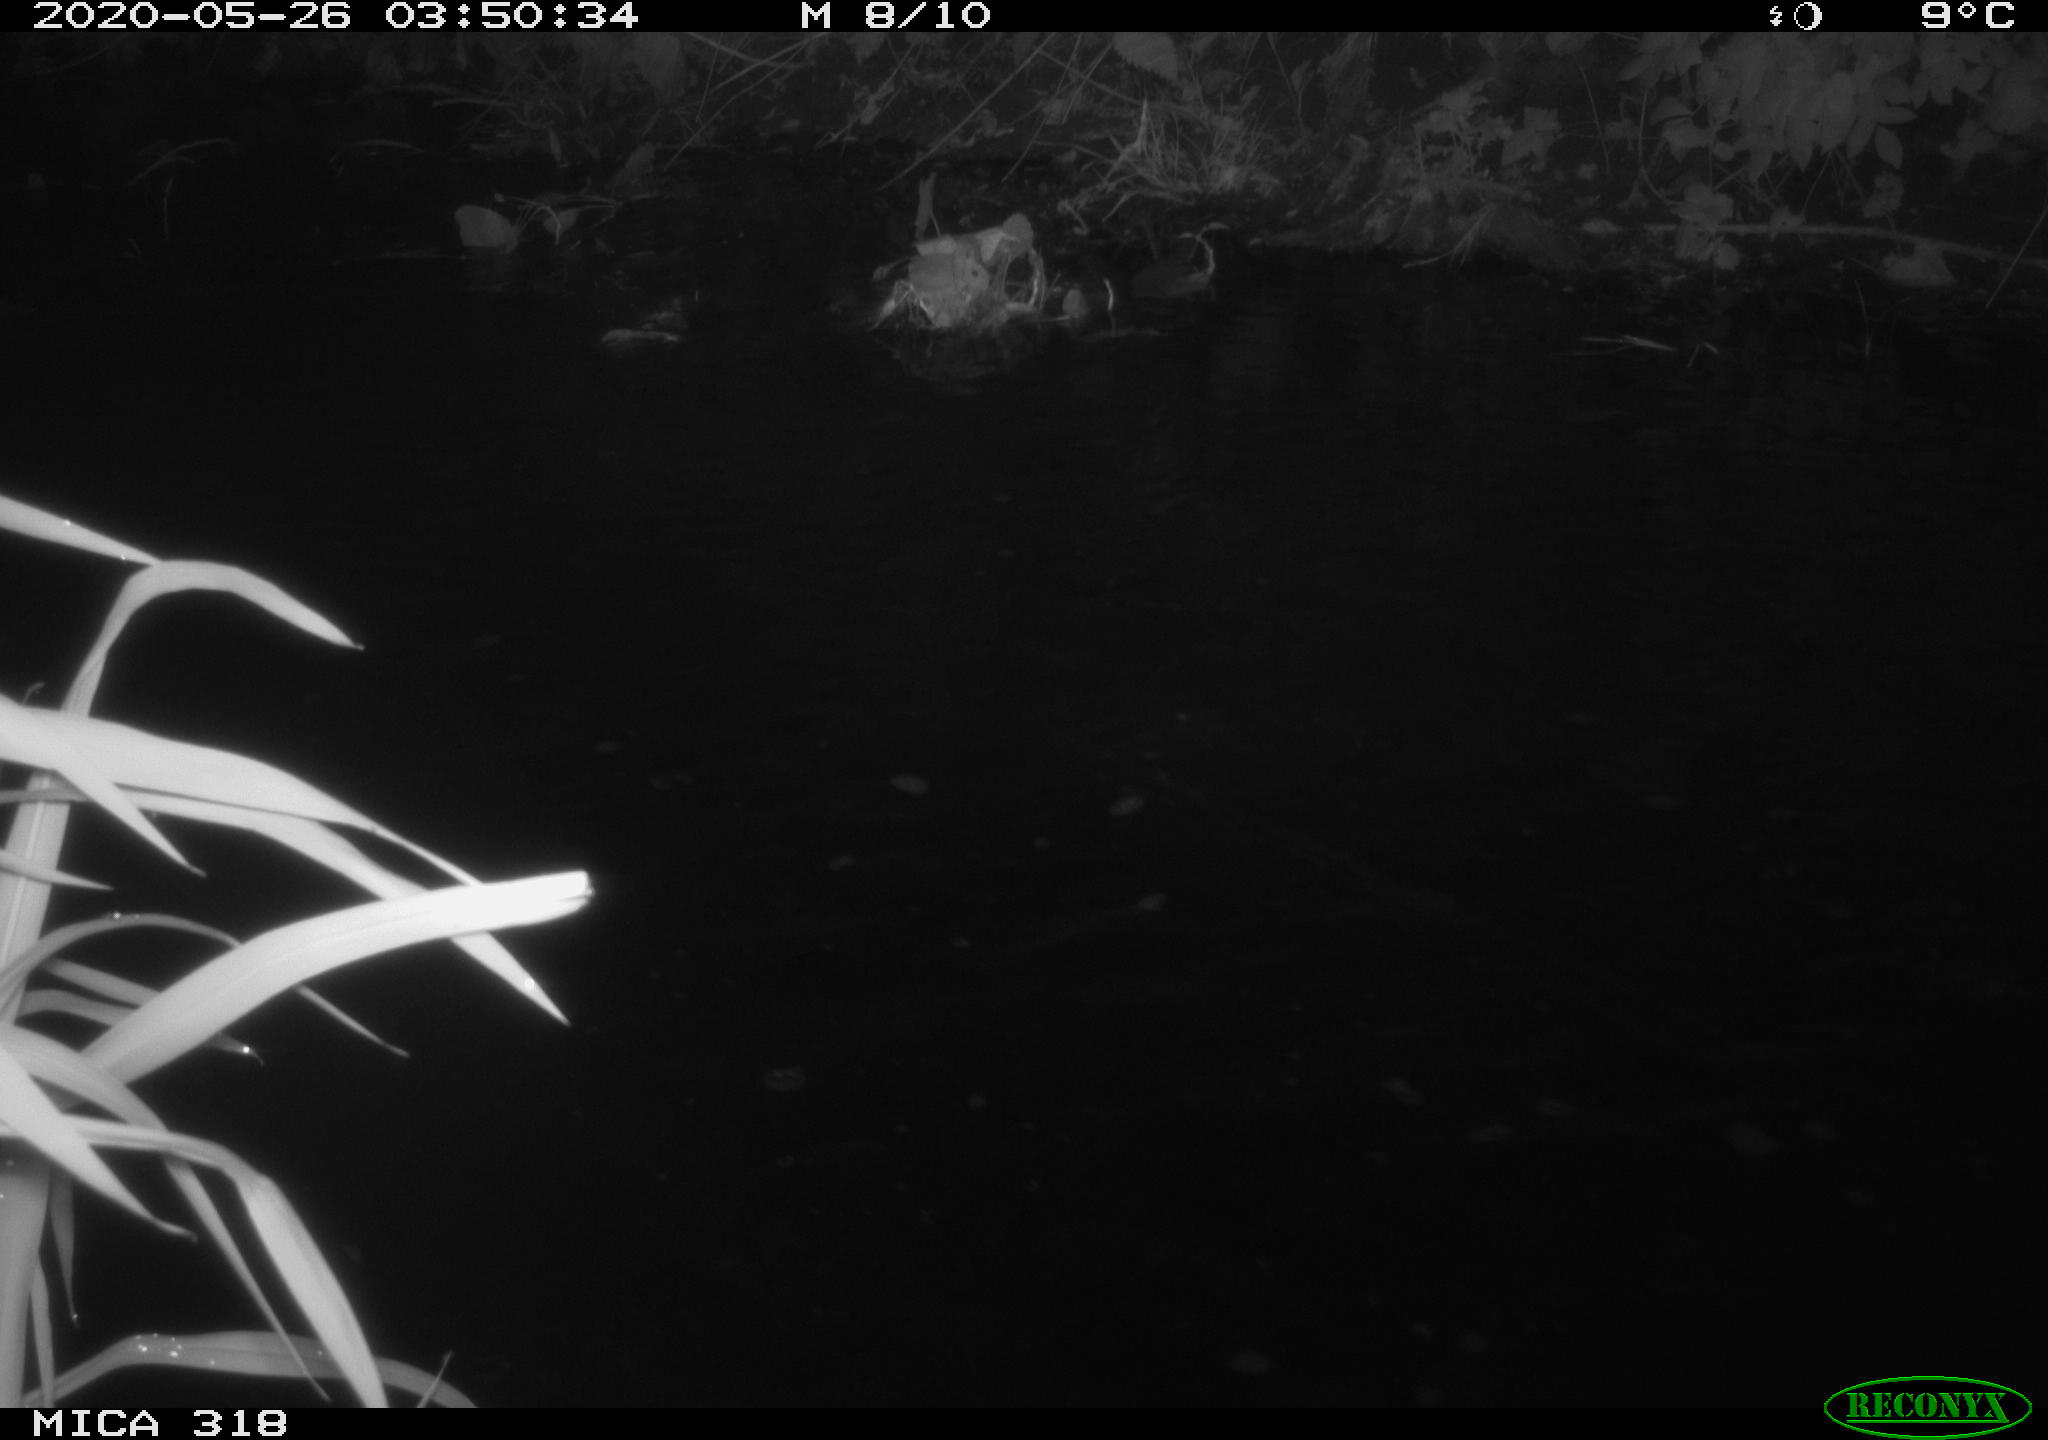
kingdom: Animalia
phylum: Chordata
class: Aves
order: Pelecaniformes
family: Ardeidae
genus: Ardea
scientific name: Ardea cinerea
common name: Grey heron
